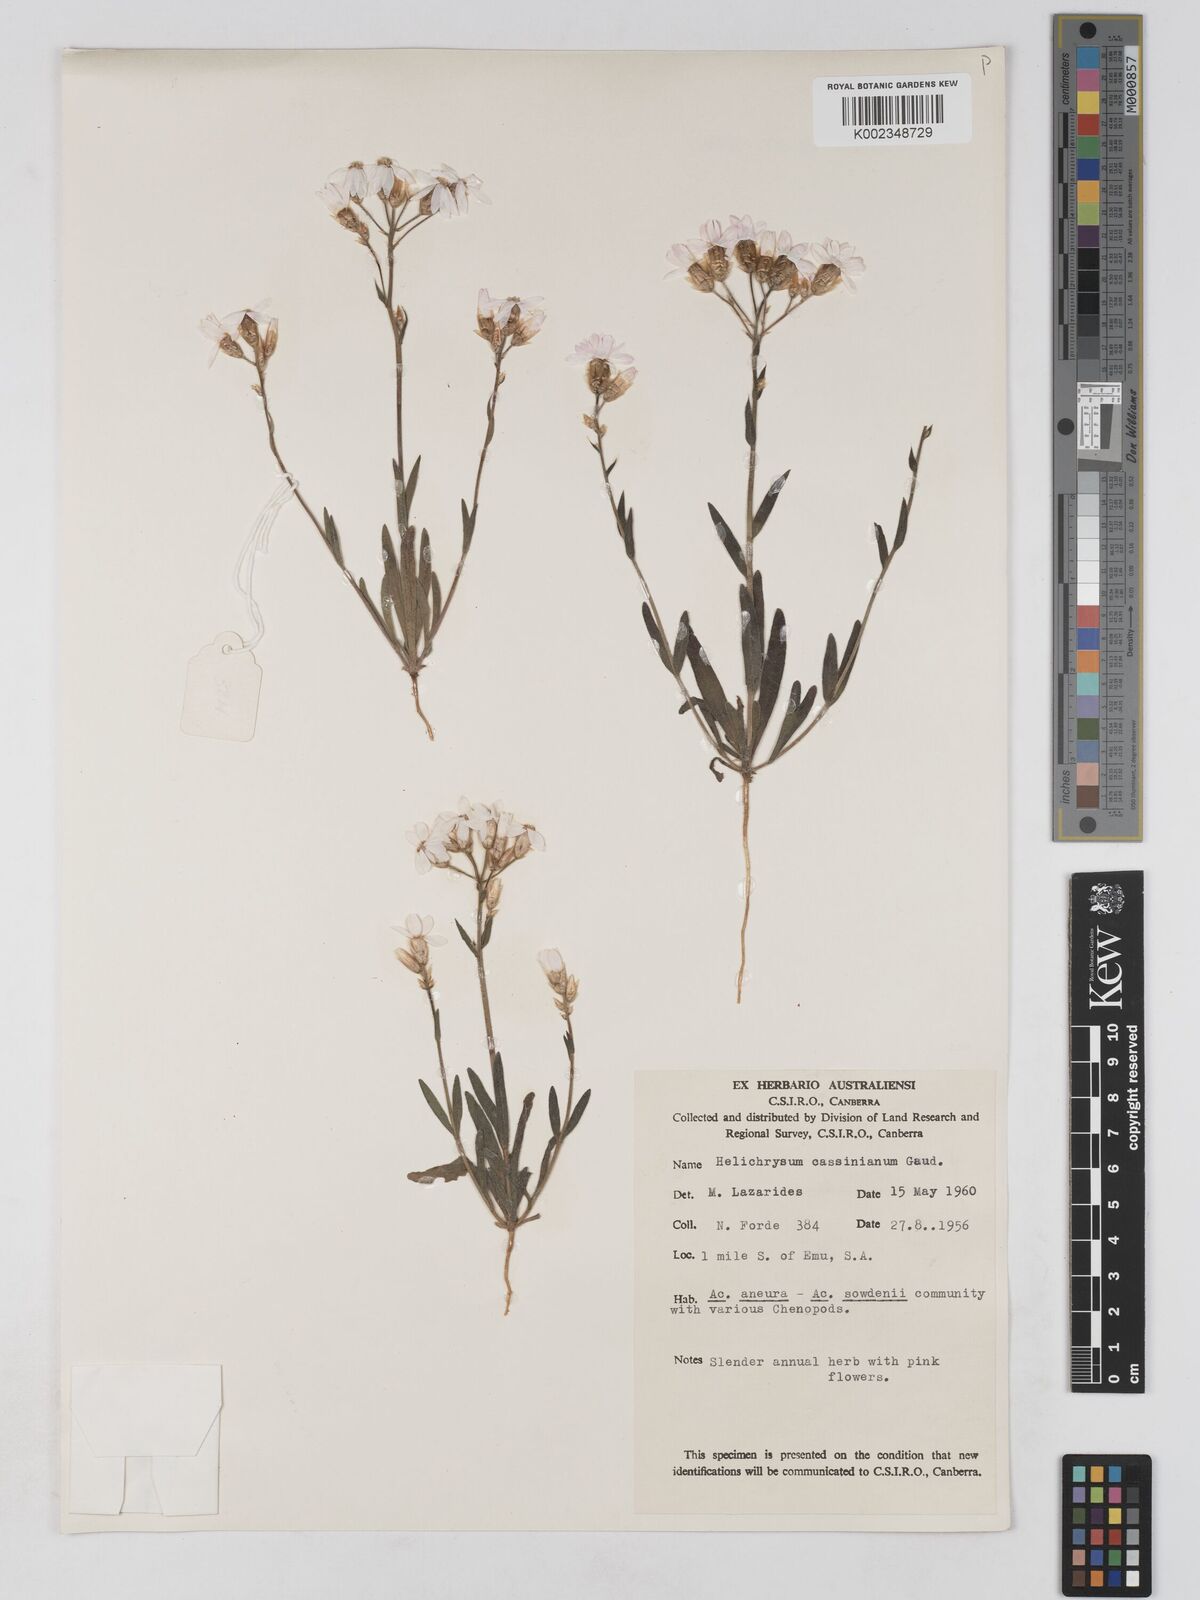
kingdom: Plantae
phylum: Tracheophyta
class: Magnoliopsida
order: Asterales
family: Asteraceae
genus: Schoenia
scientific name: Schoenia cassiniana
